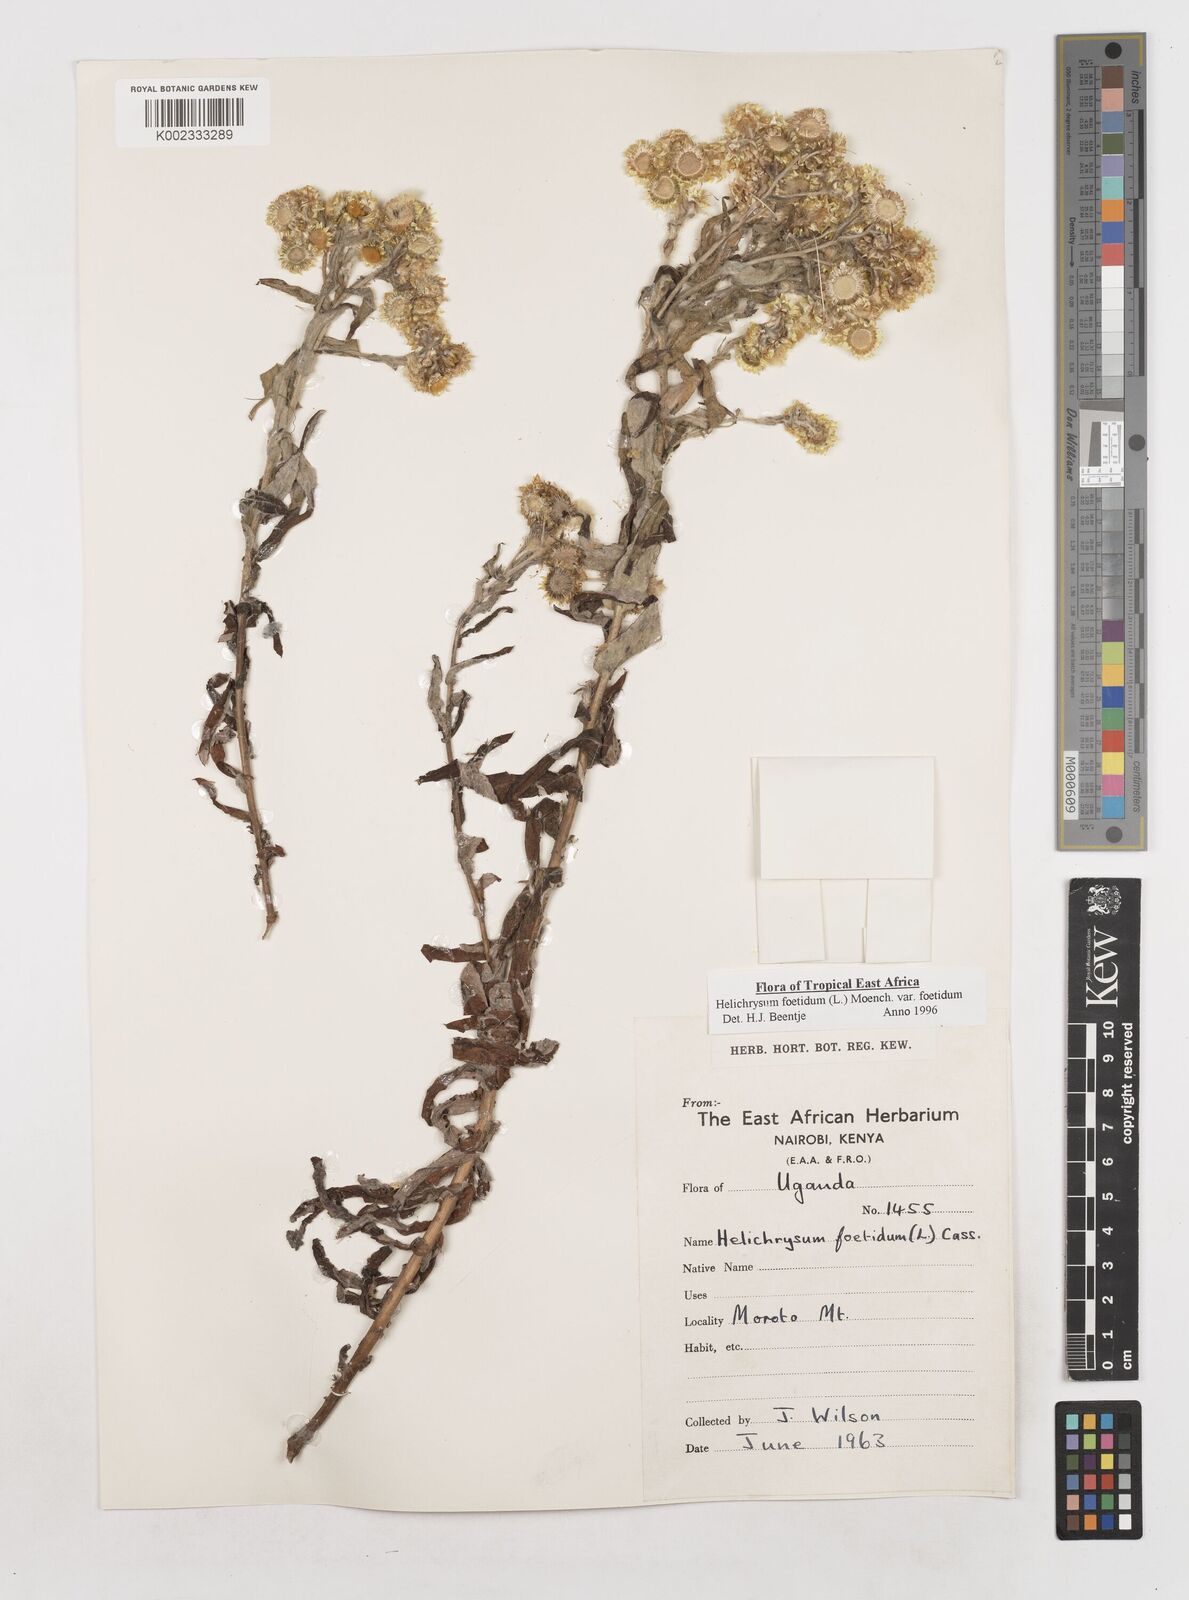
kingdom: Plantae
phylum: Tracheophyta
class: Magnoliopsida
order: Asterales
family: Asteraceae
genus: Helichrysum
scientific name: Helichrysum foetidum
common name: Stinking everlasting
